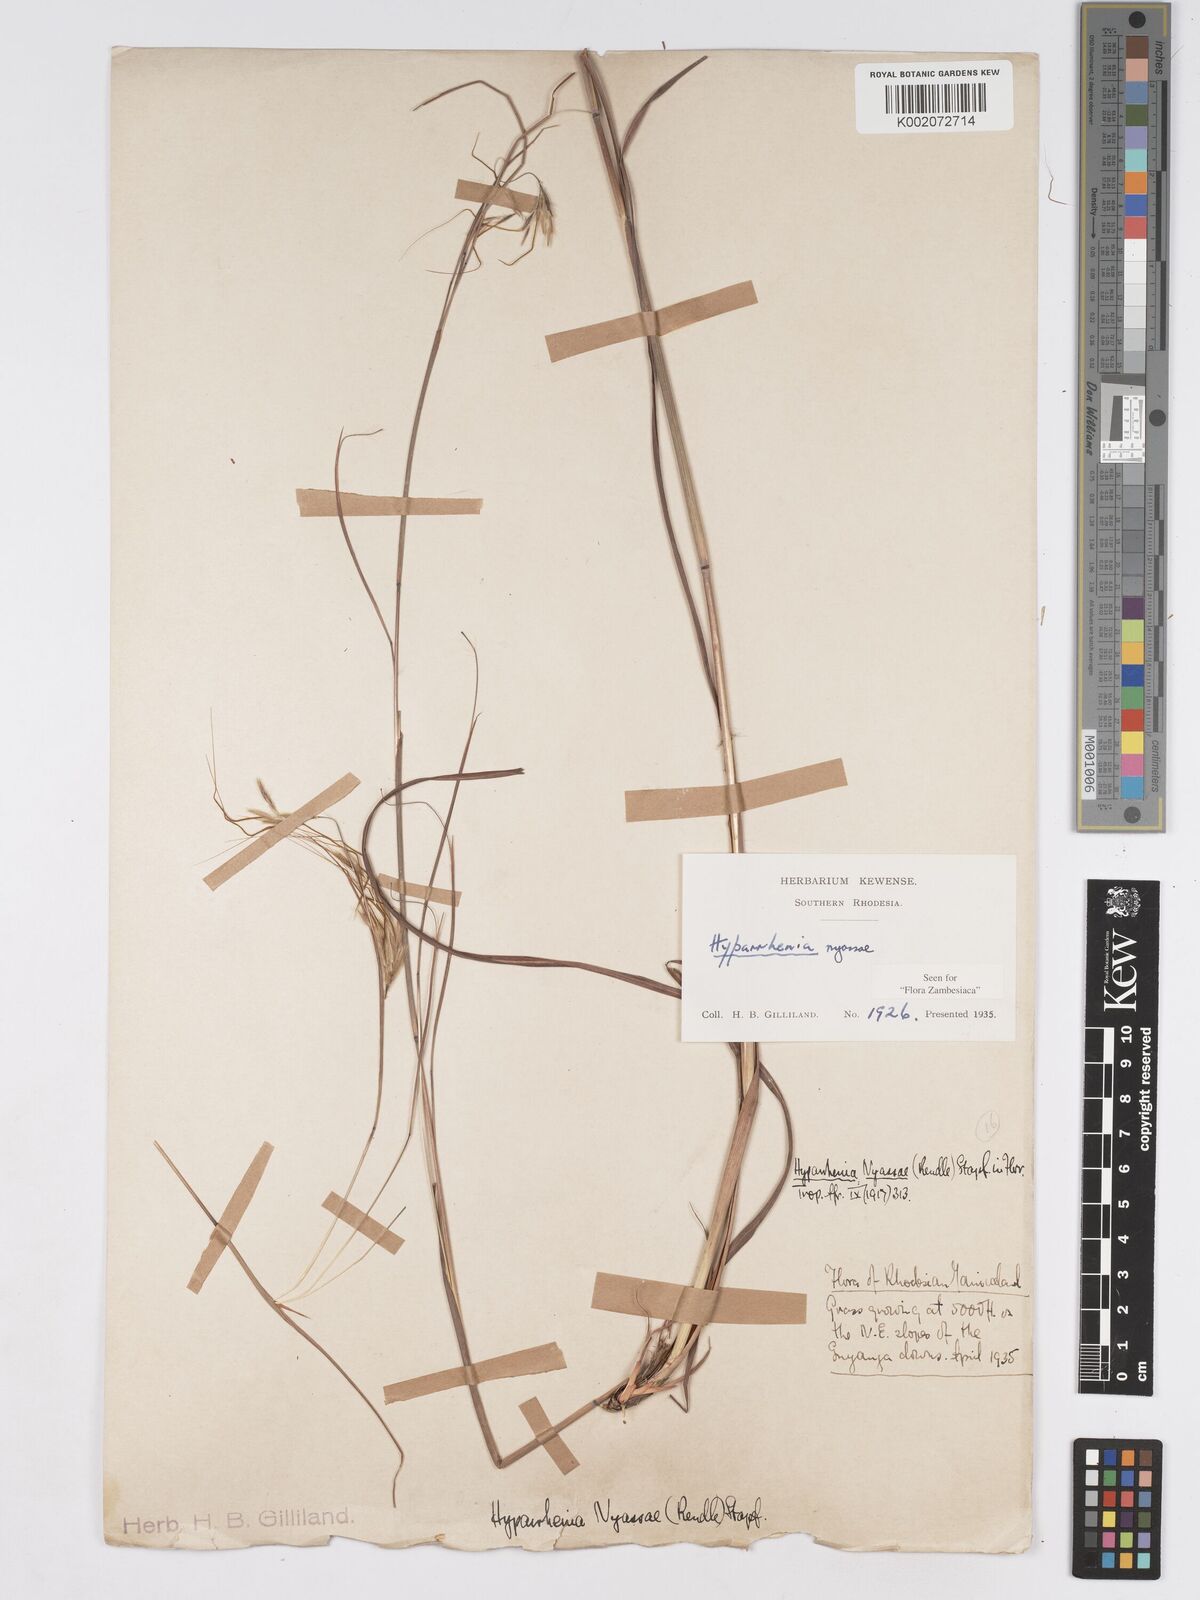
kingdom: Plantae
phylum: Tracheophyta
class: Liliopsida
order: Poales
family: Poaceae
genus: Hyparrhenia
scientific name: Hyparrhenia nyassae
